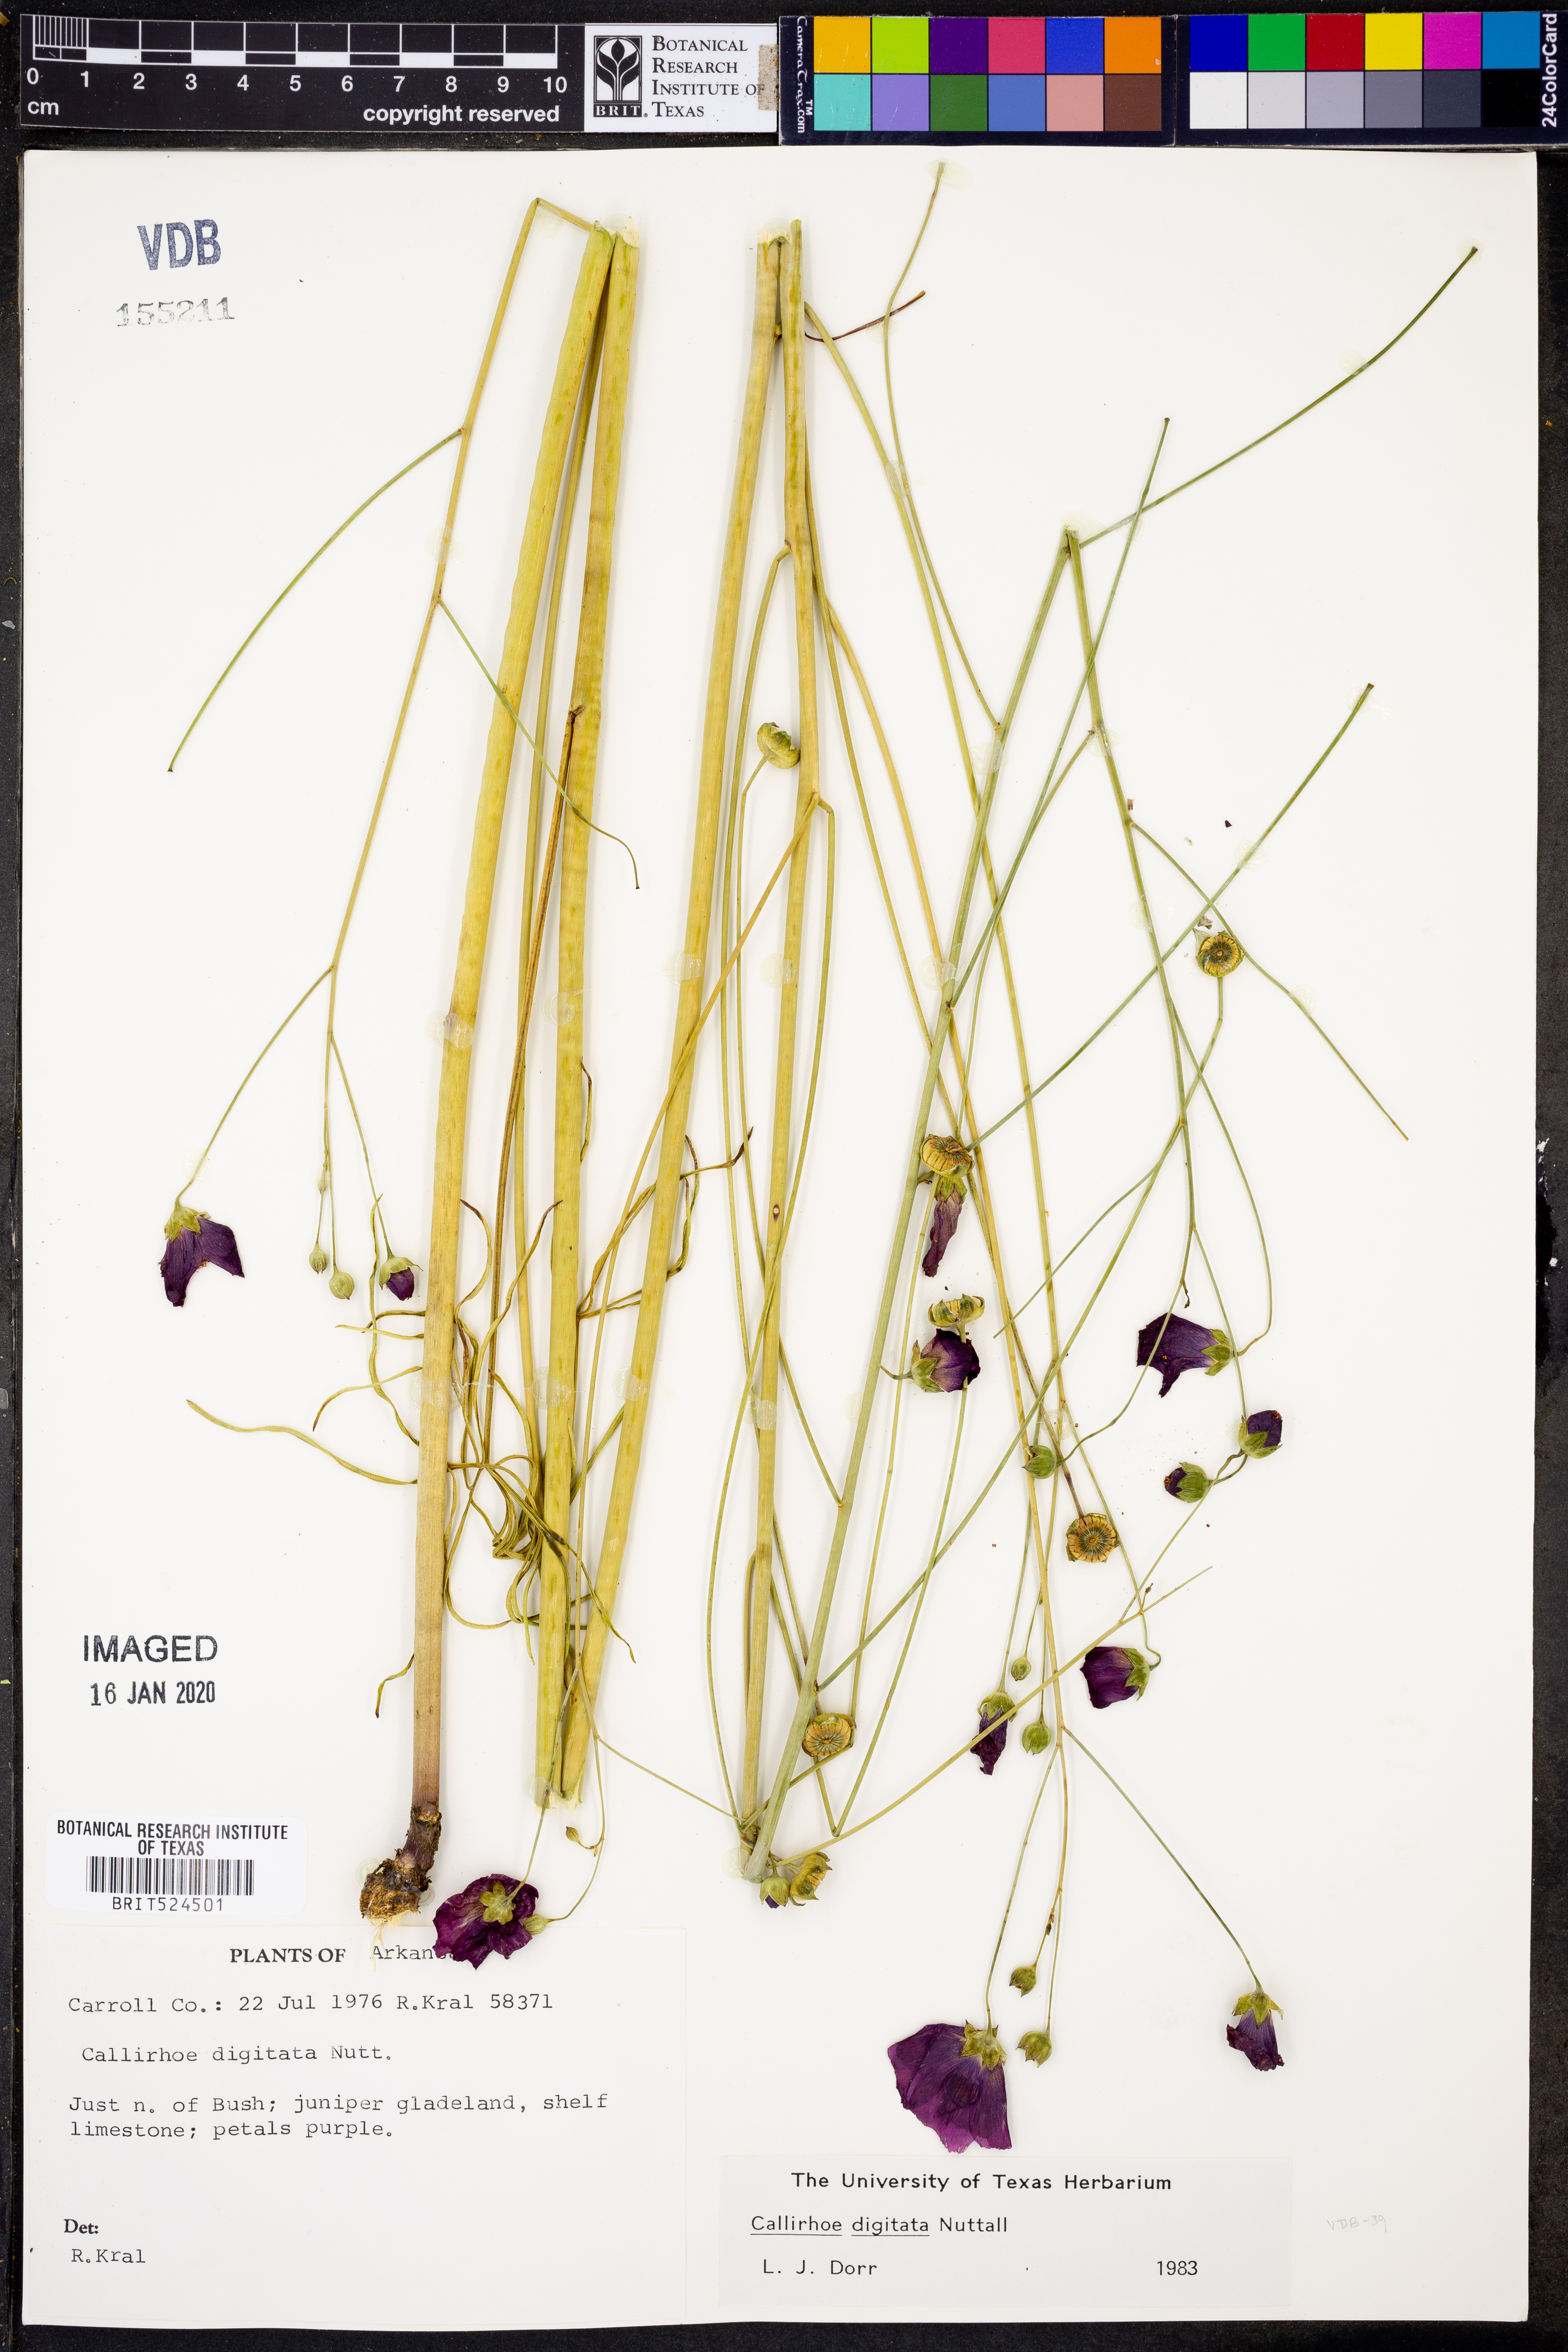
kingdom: Plantae
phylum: Tracheophyta
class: Magnoliopsida
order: Malvales
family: Malvaceae
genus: Callirhoe
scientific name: Callirhoe digitata
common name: Finger poppy-mallow
